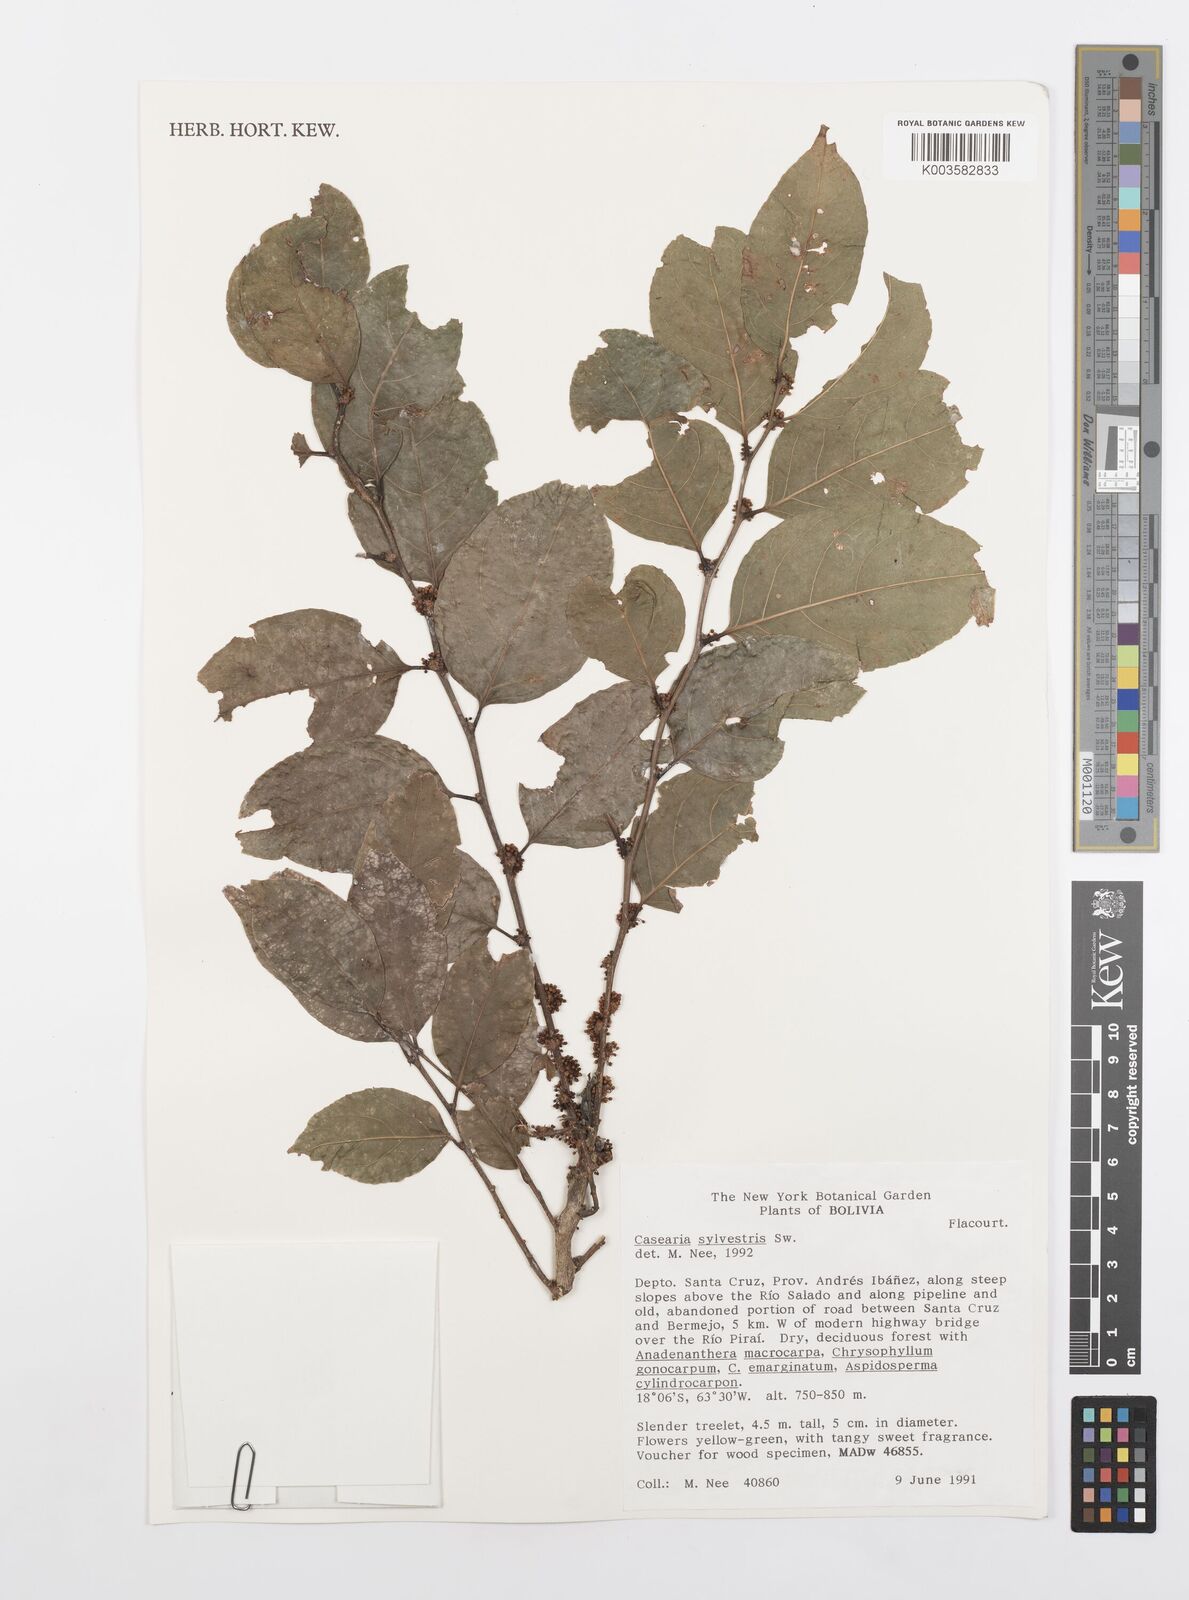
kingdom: Plantae
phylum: Tracheophyta
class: Magnoliopsida
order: Malpighiales
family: Salicaceae
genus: Casearia
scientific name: Casearia sylvestris
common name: Wild sage
